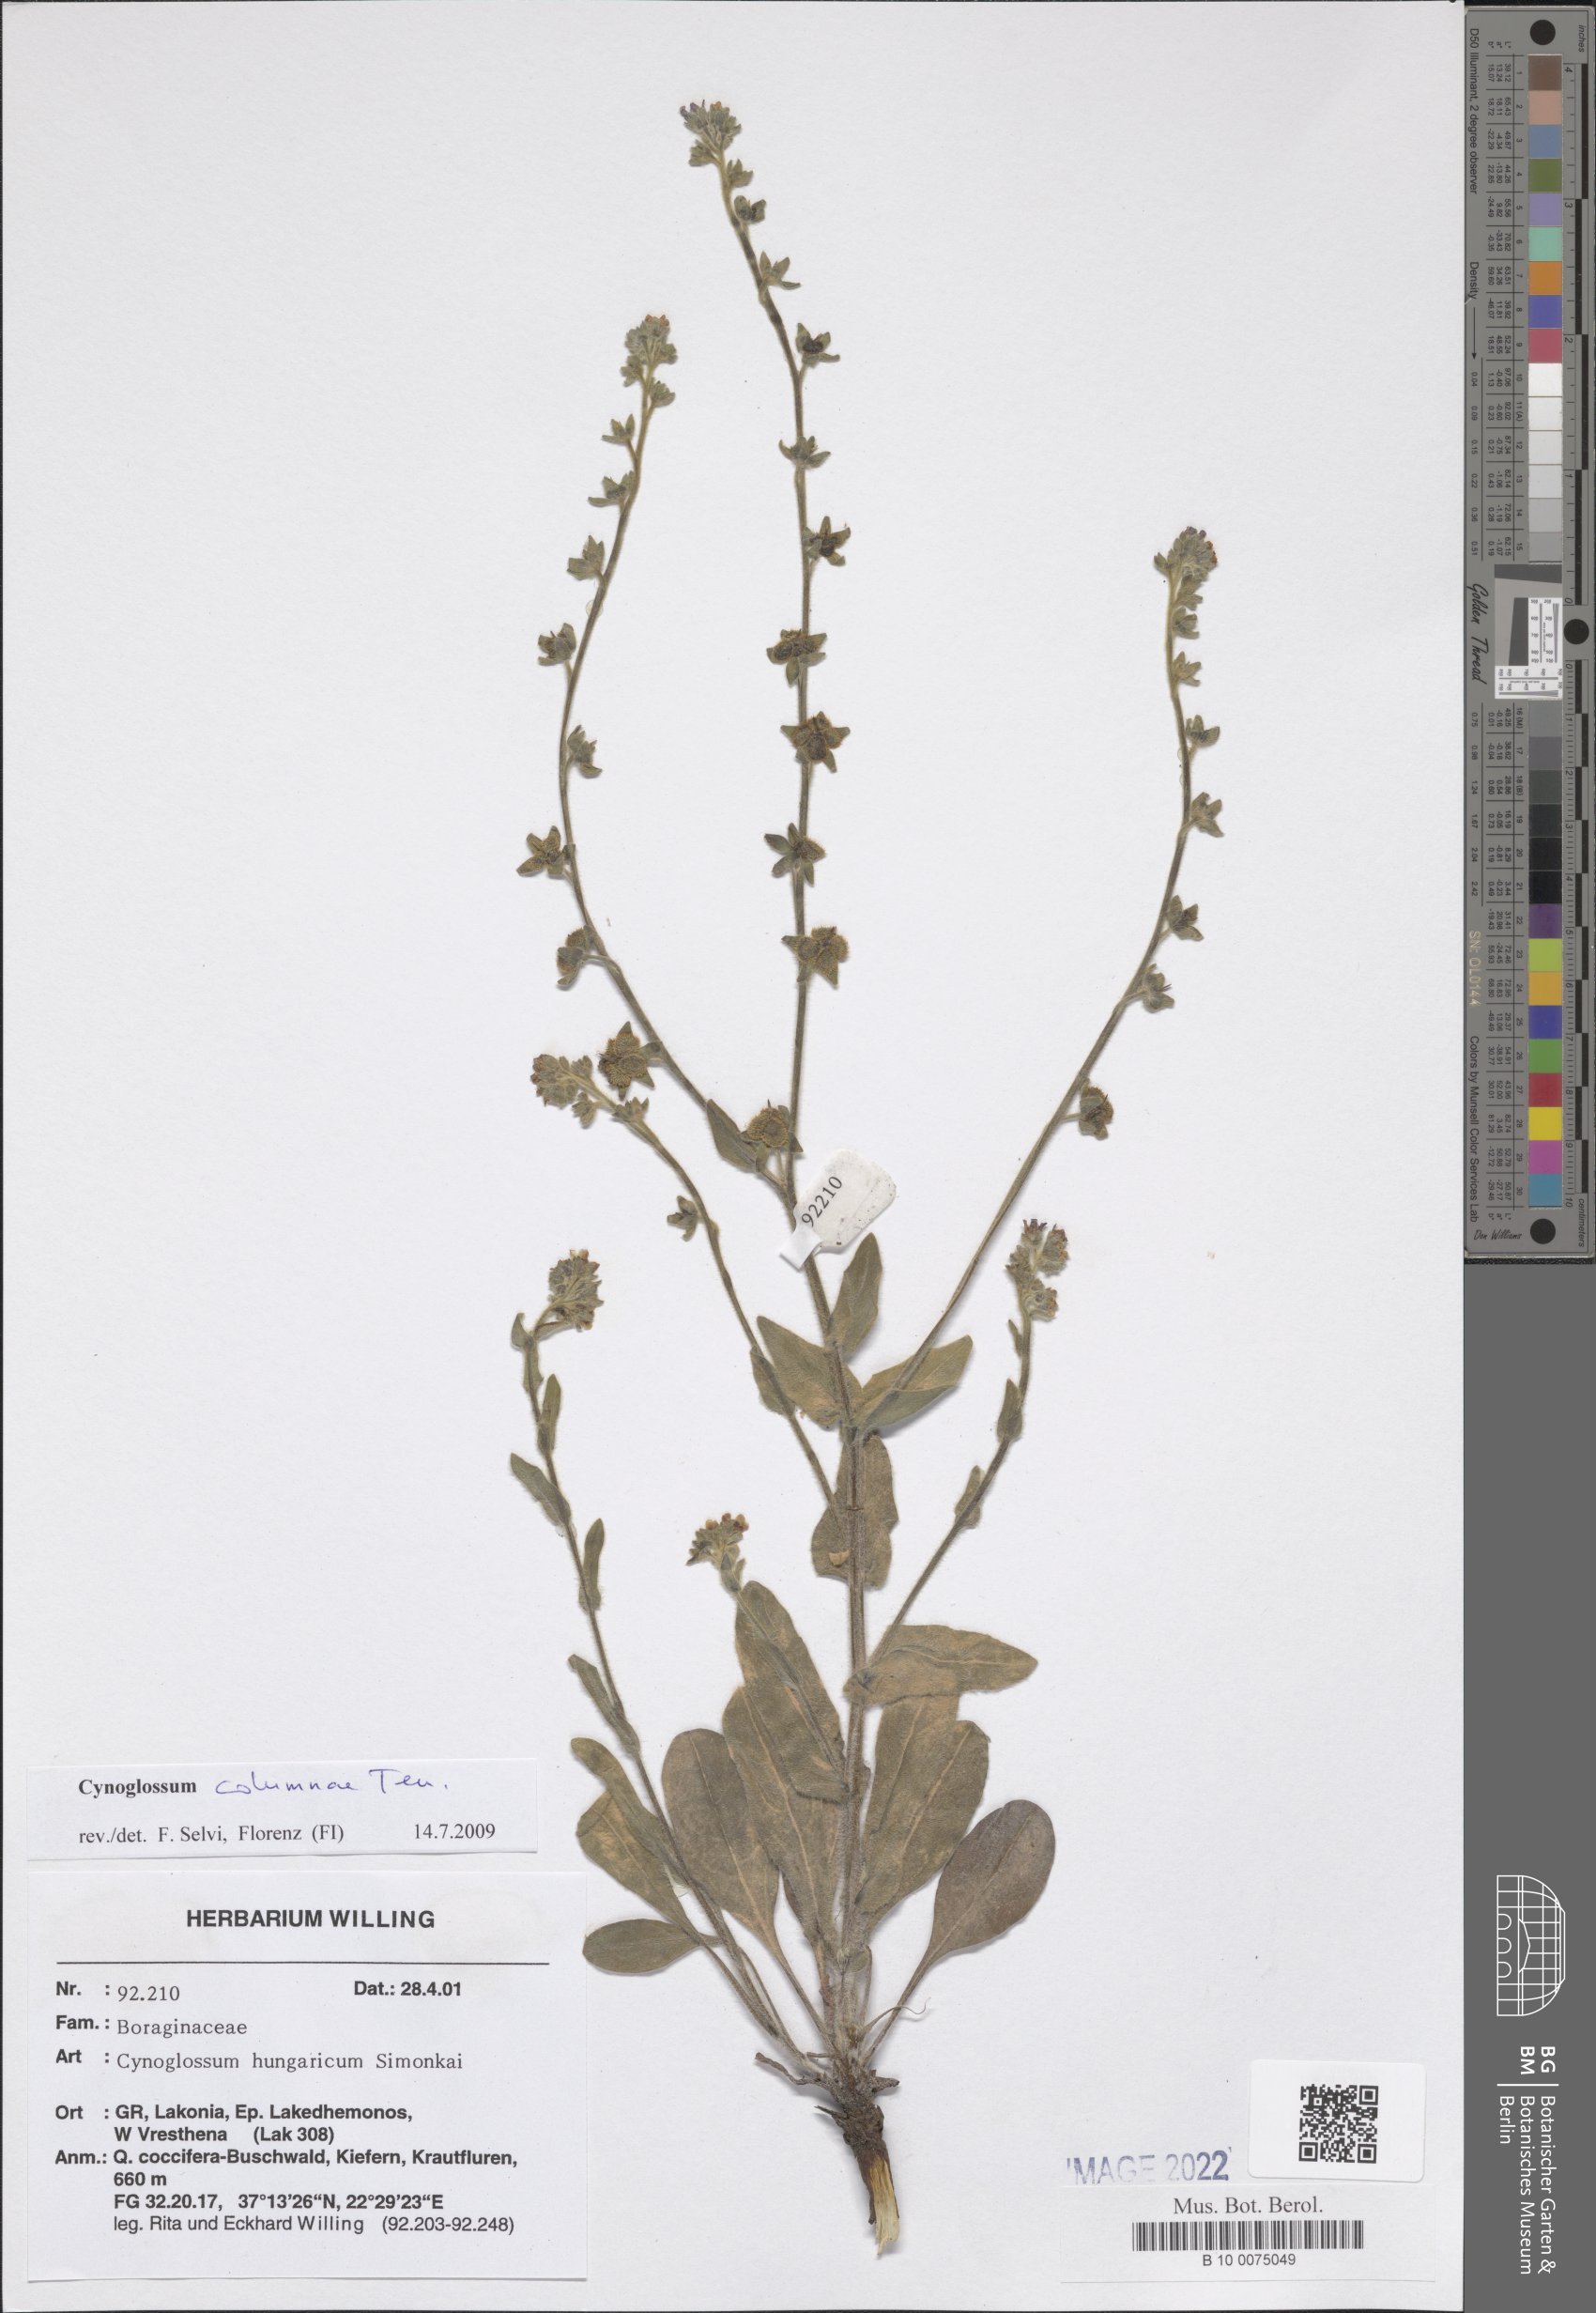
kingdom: Plantae
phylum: Tracheophyta
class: Magnoliopsida
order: Boraginales
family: Boraginaceae
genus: Rindera
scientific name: Rindera columnae
